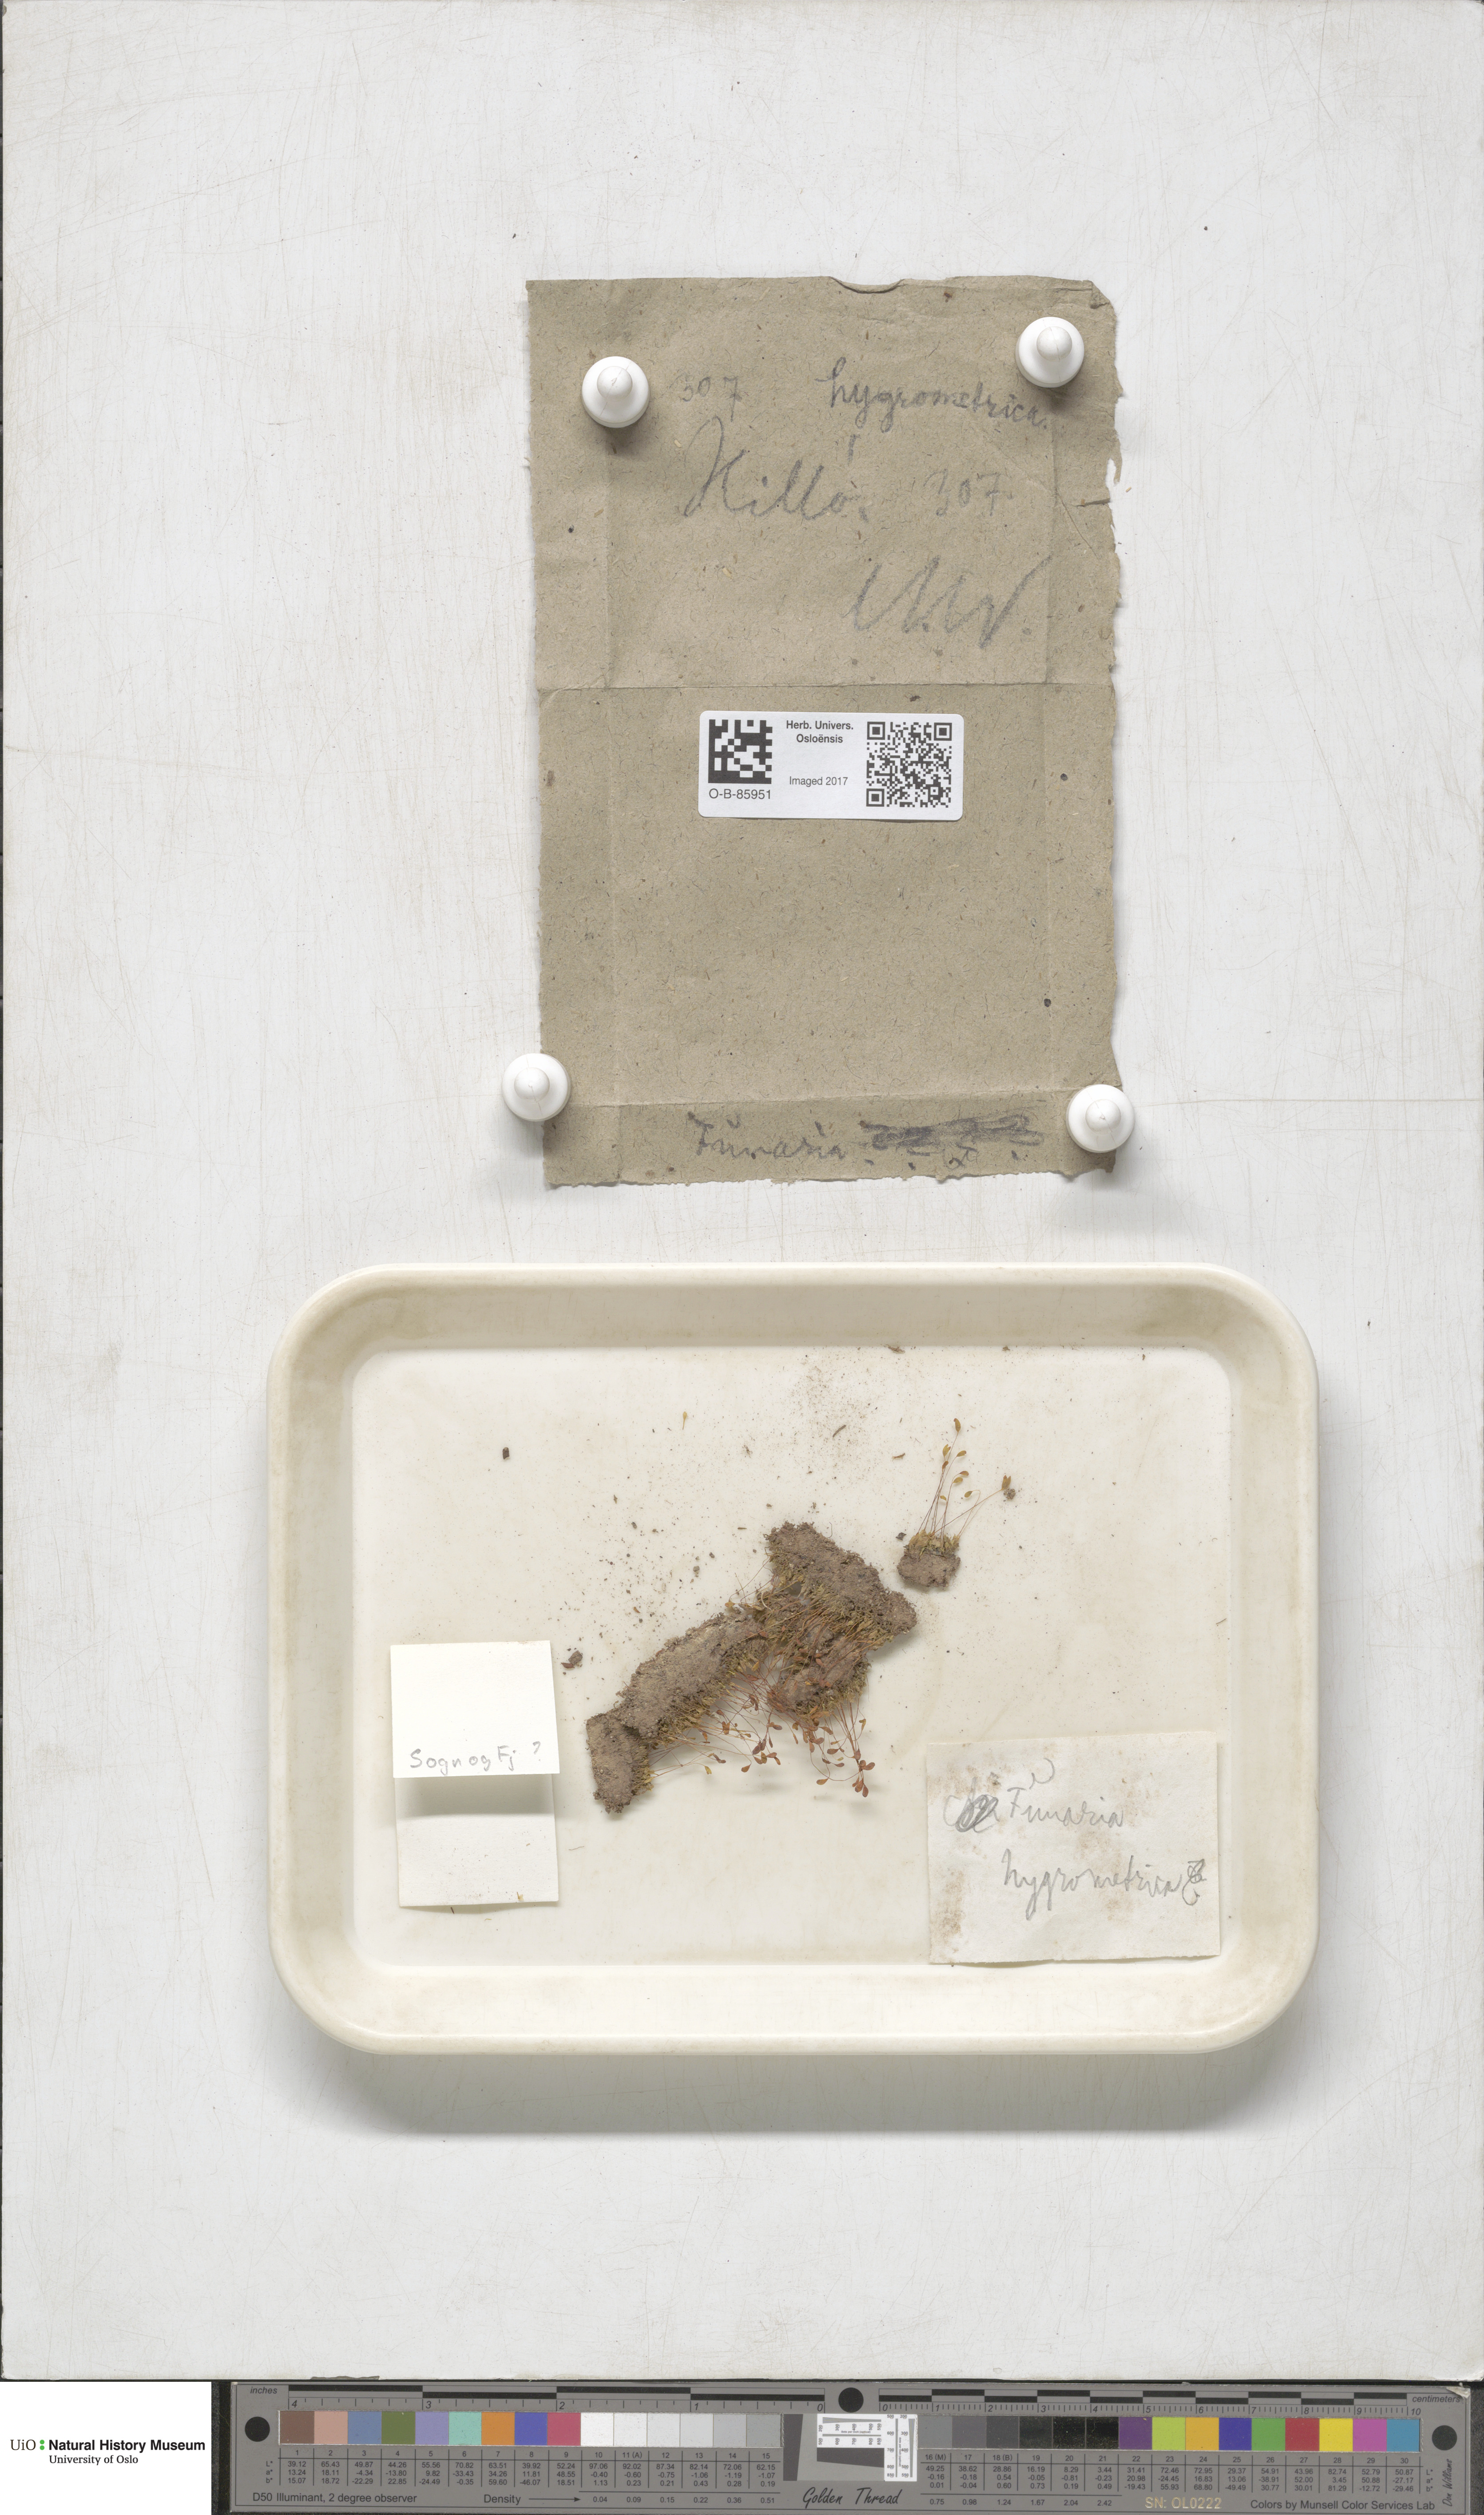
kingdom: Plantae
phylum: Bryophyta
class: Bryopsida
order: Funariales
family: Funariaceae
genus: Funaria
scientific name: Funaria hygrometrica
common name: Common cord moss
